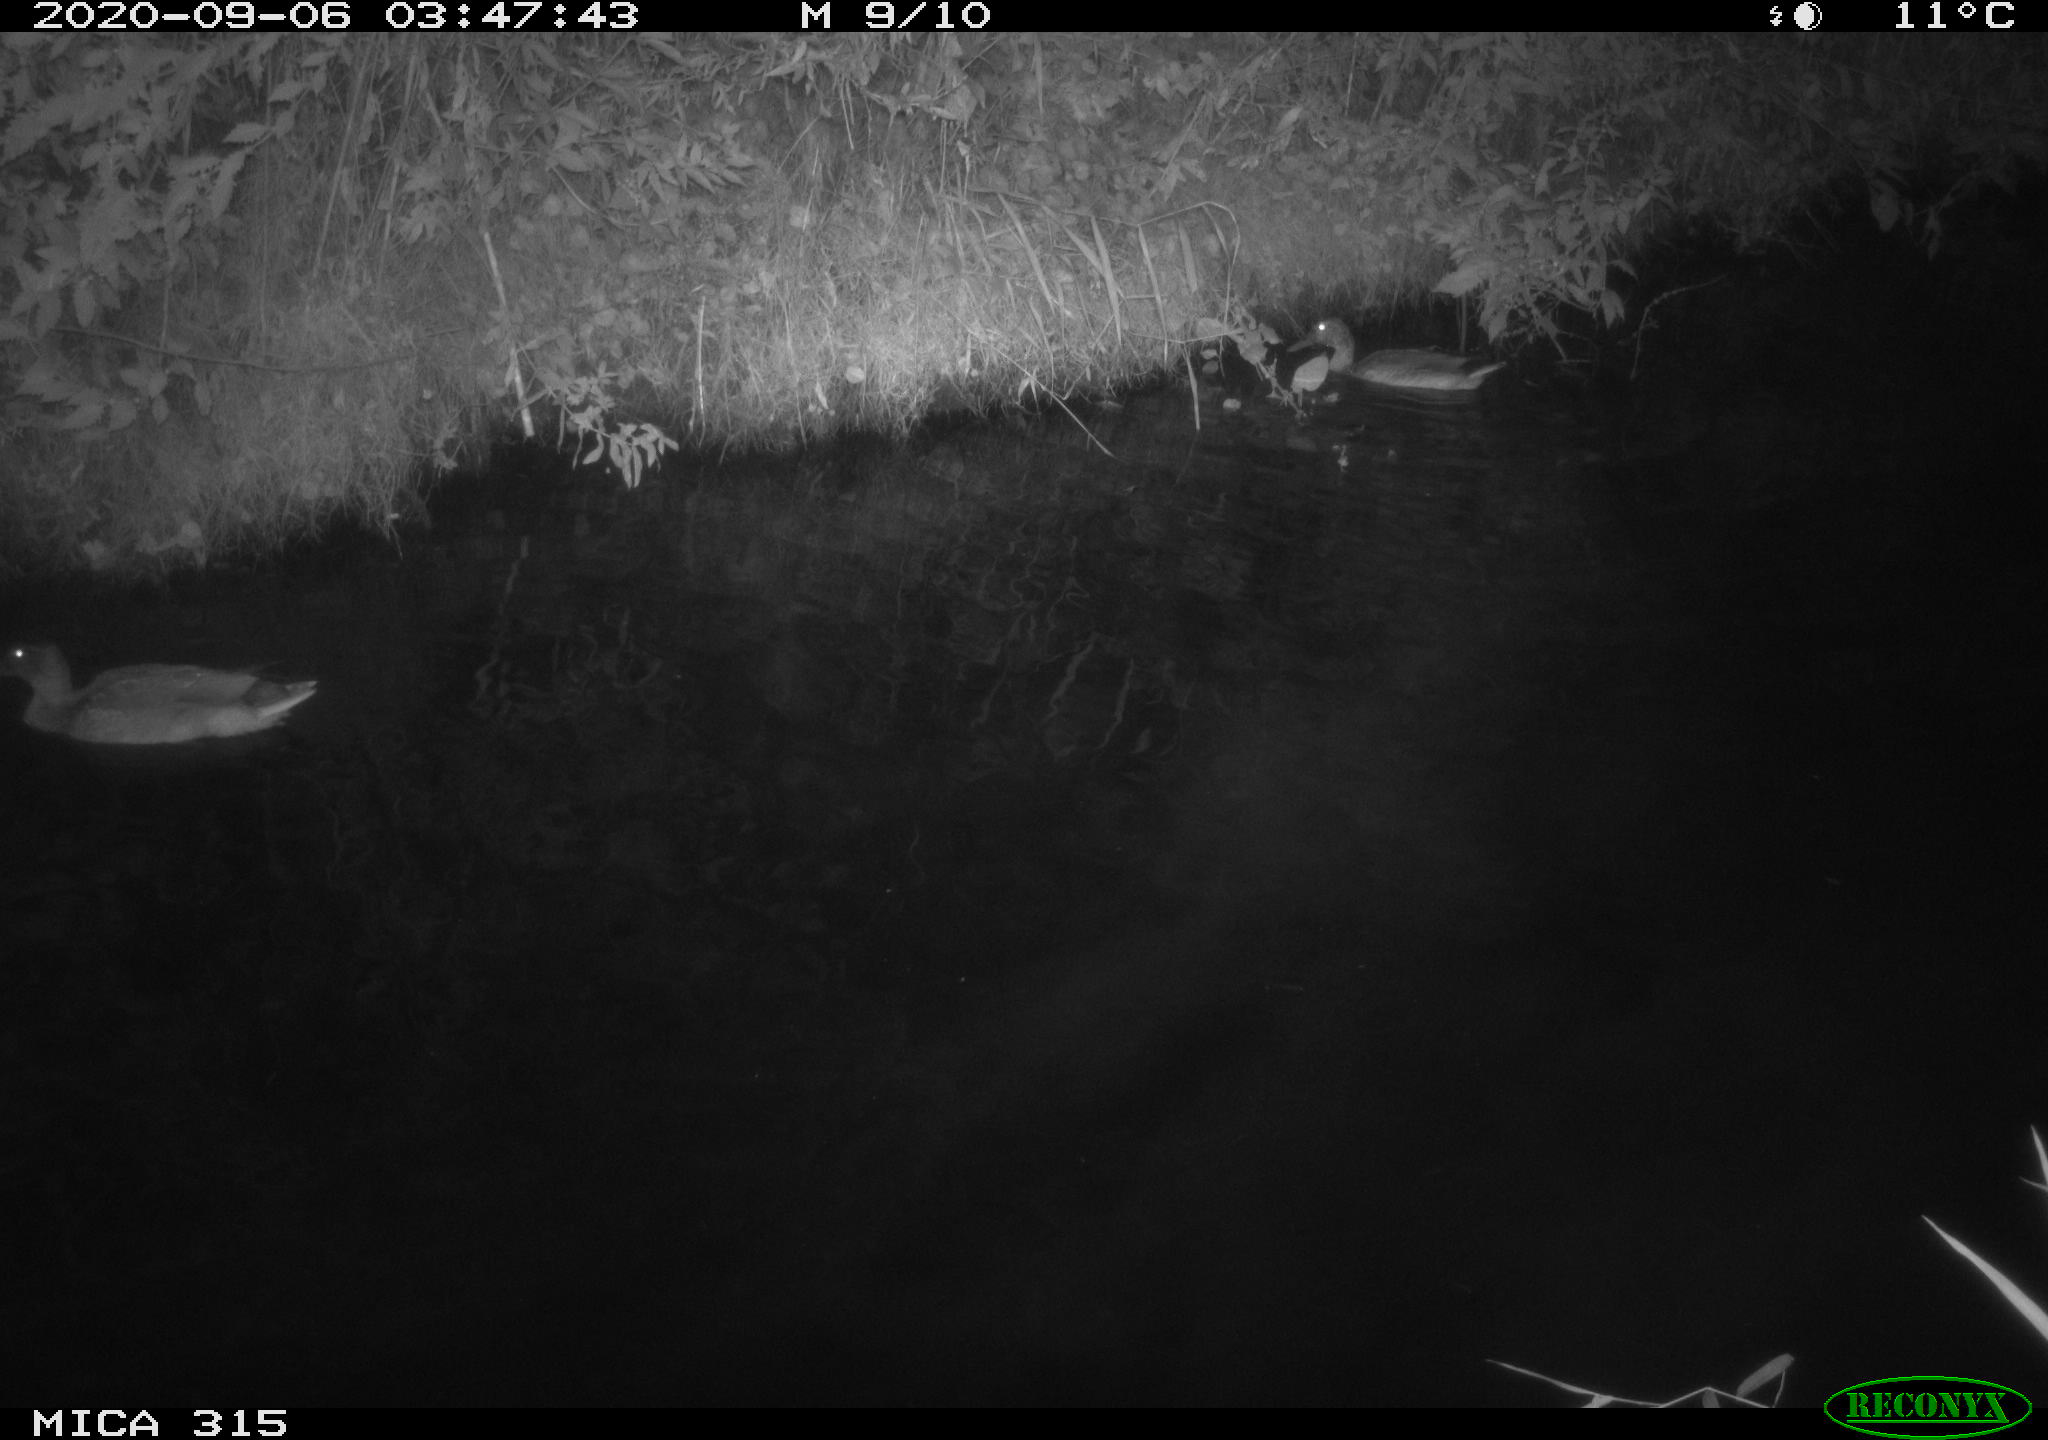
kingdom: Animalia
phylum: Chordata
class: Aves
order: Anseriformes
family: Anatidae
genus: Anas
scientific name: Anas platyrhynchos
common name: Mallard
